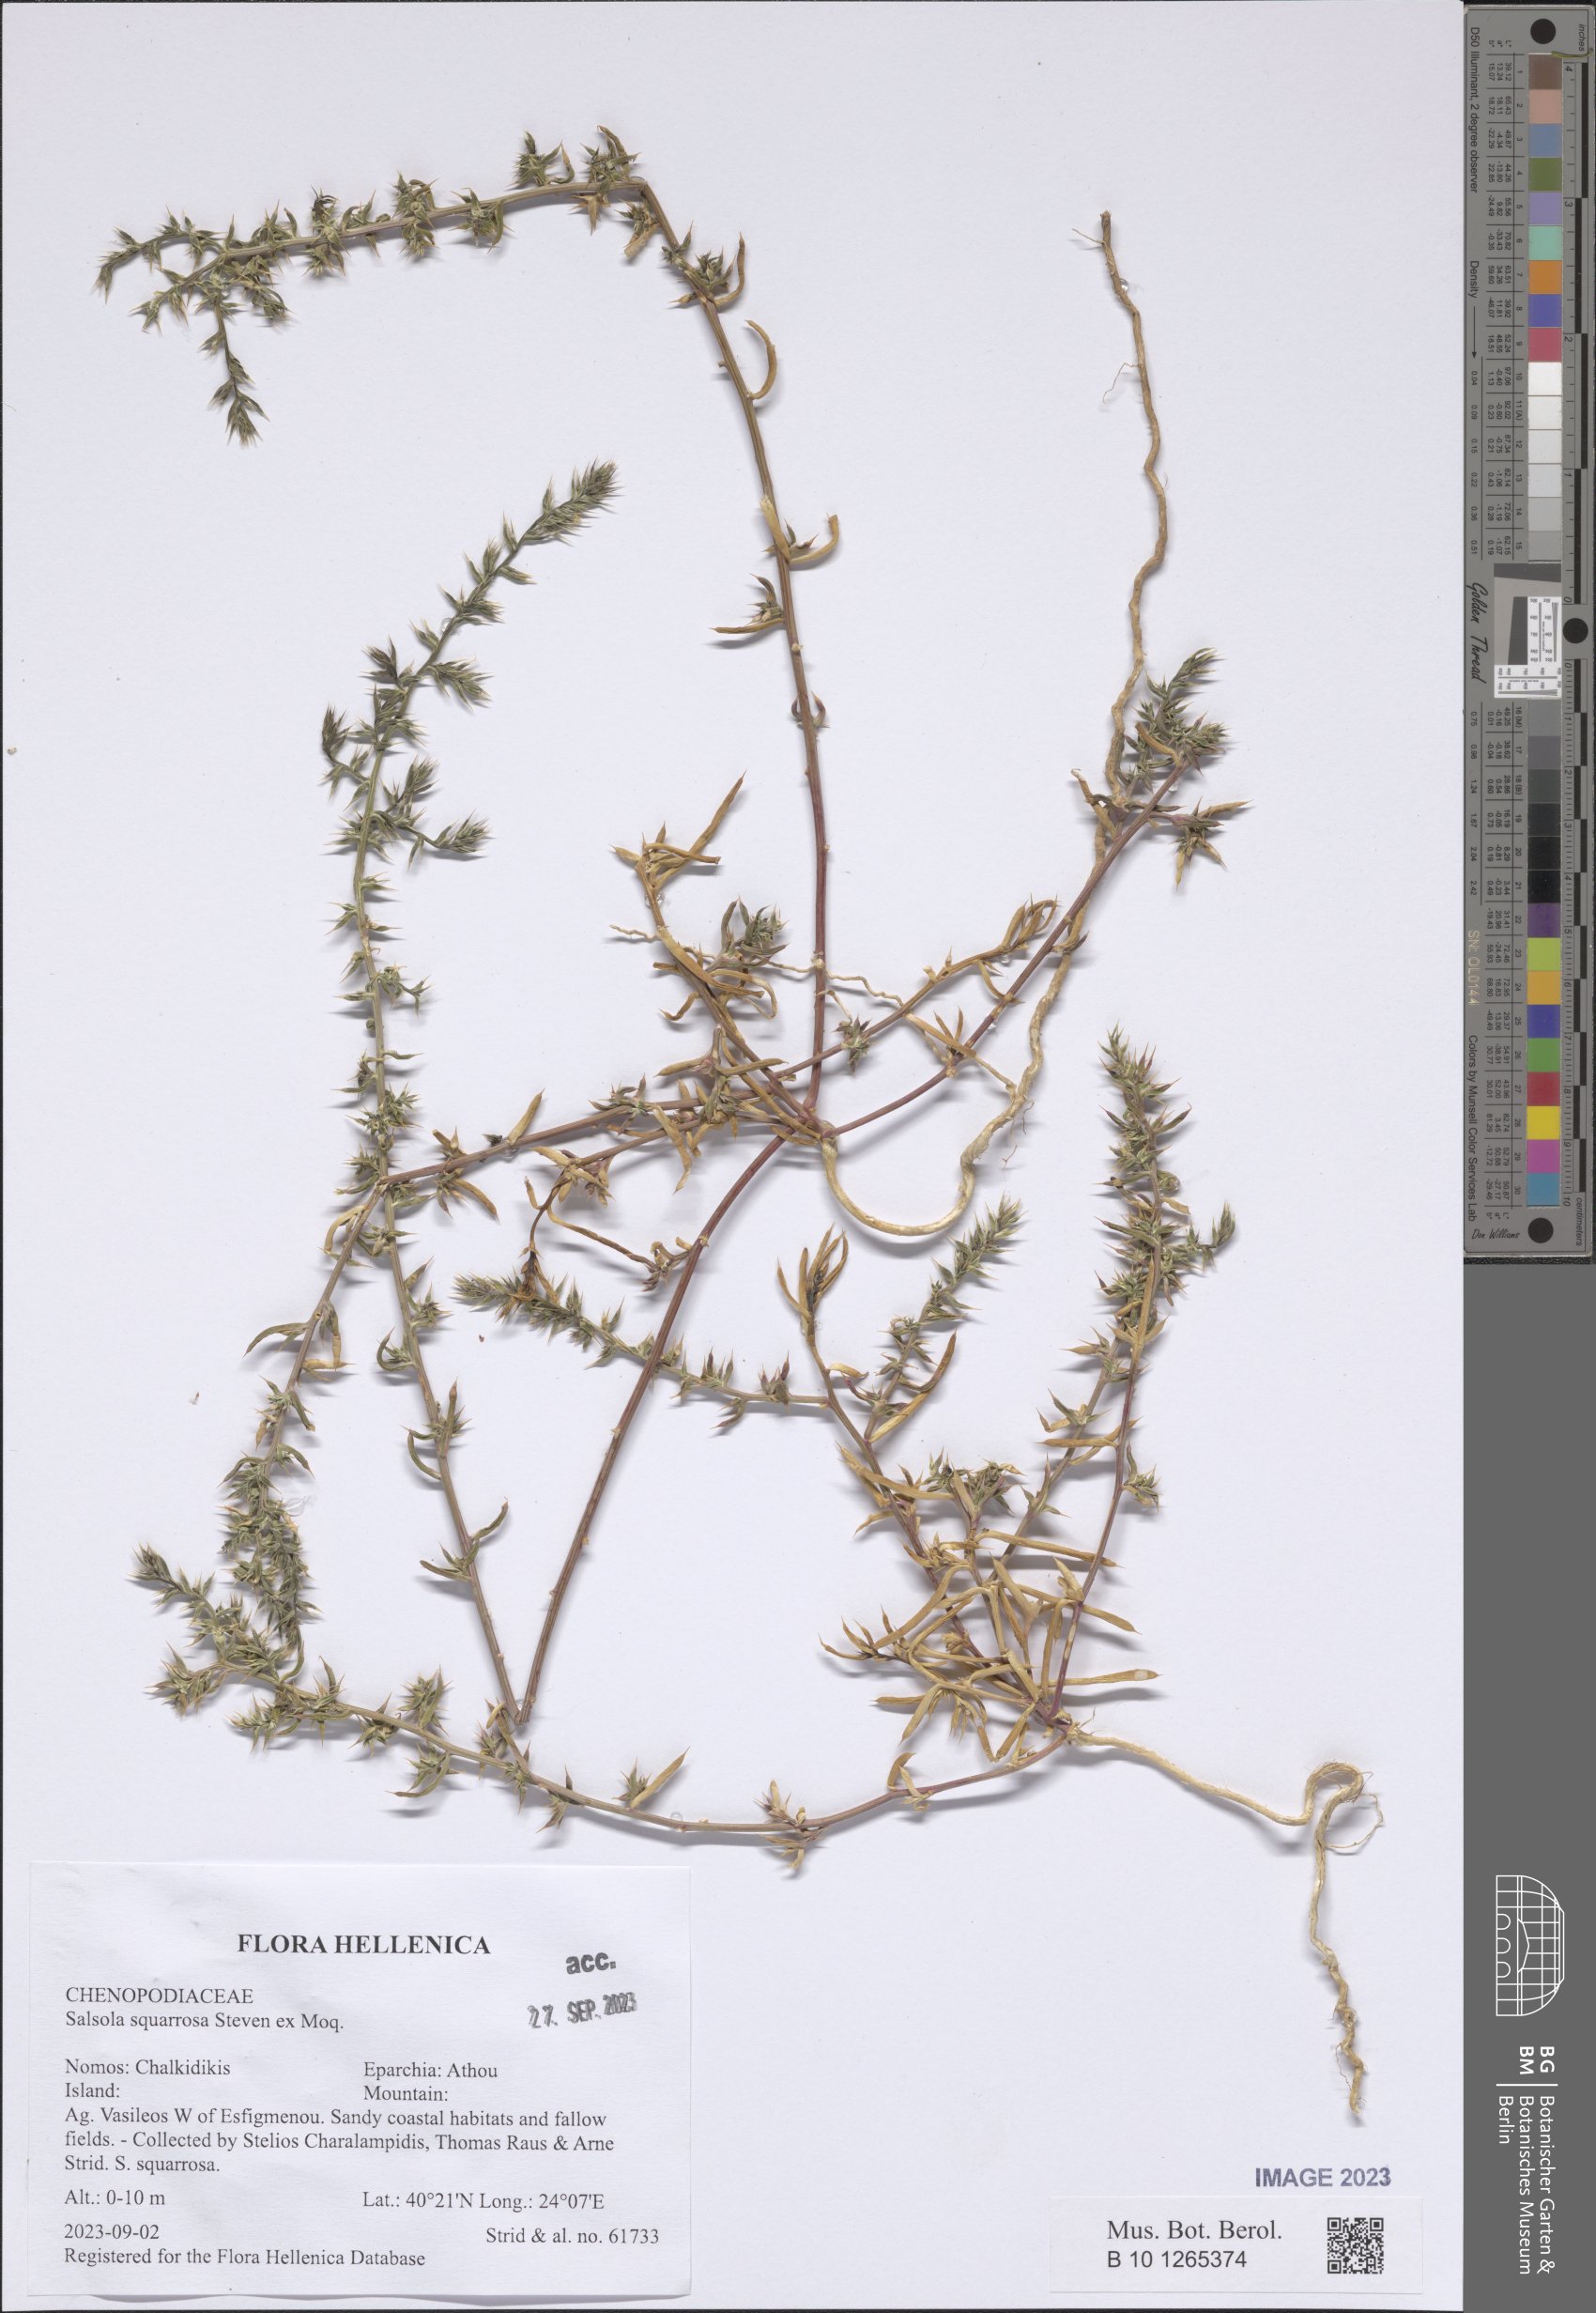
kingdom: Plantae
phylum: Tracheophyta
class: Magnoliopsida
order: Caryophyllales
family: Amaranthaceae
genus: Salsola
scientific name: Salsola squarrosa
